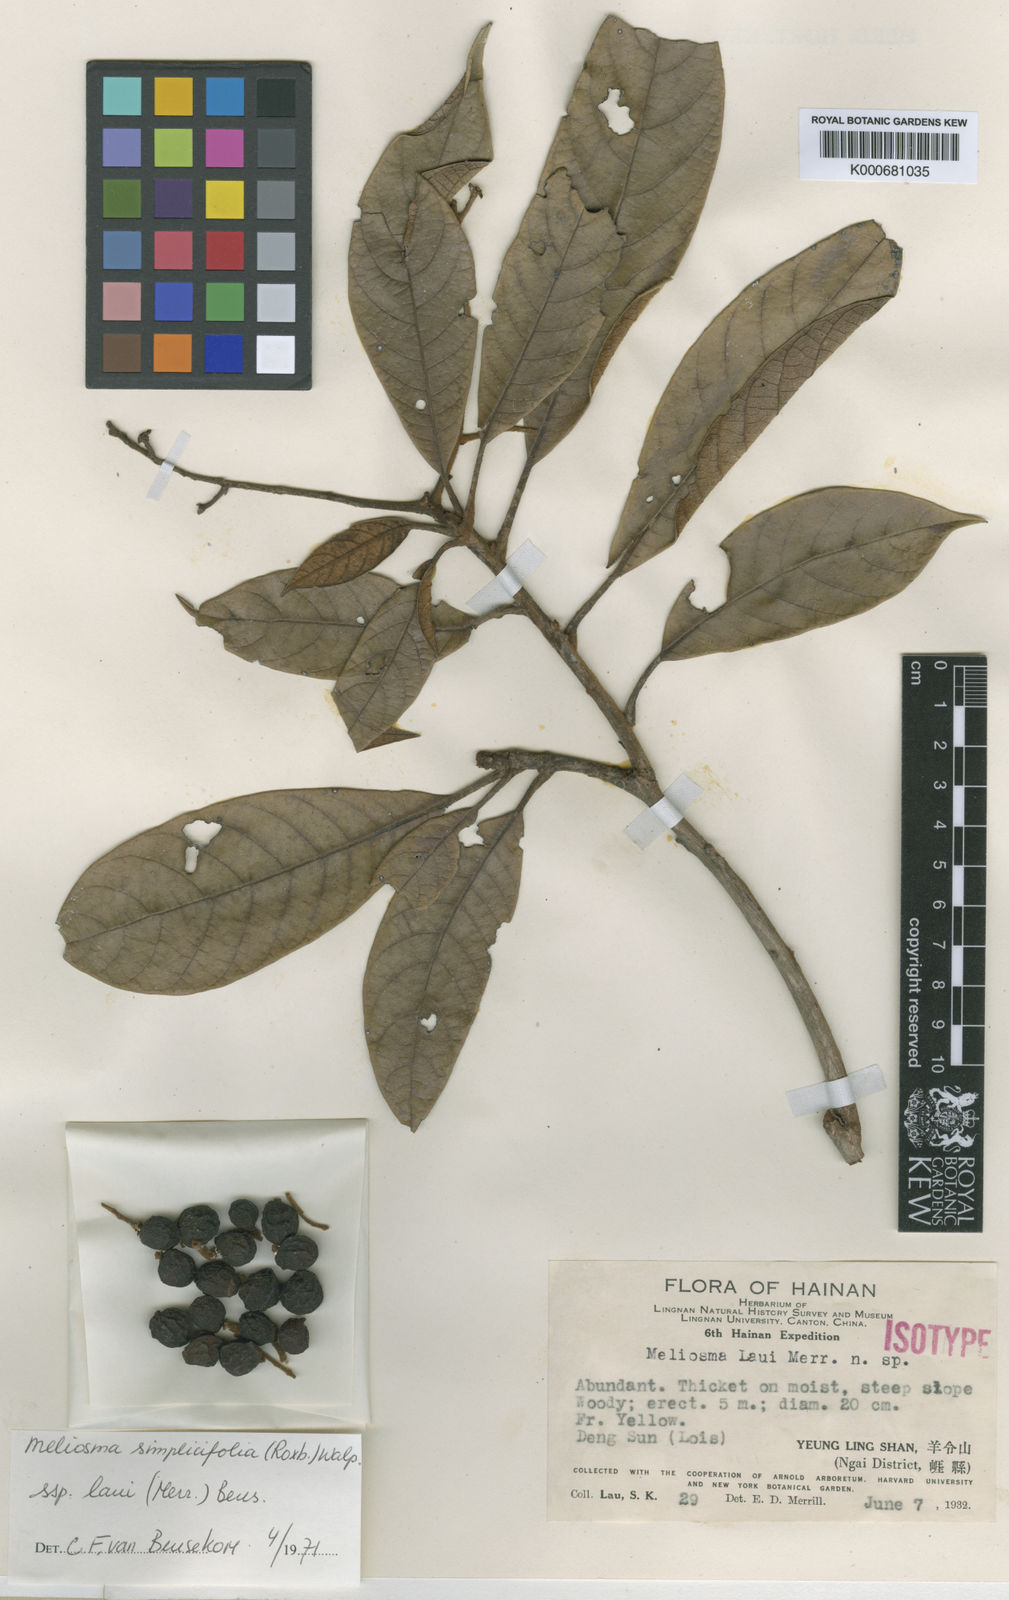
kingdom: Plantae
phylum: Tracheophyta
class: Magnoliopsida
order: Proteales
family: Sabiaceae
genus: Meliosma
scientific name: Meliosma laui
